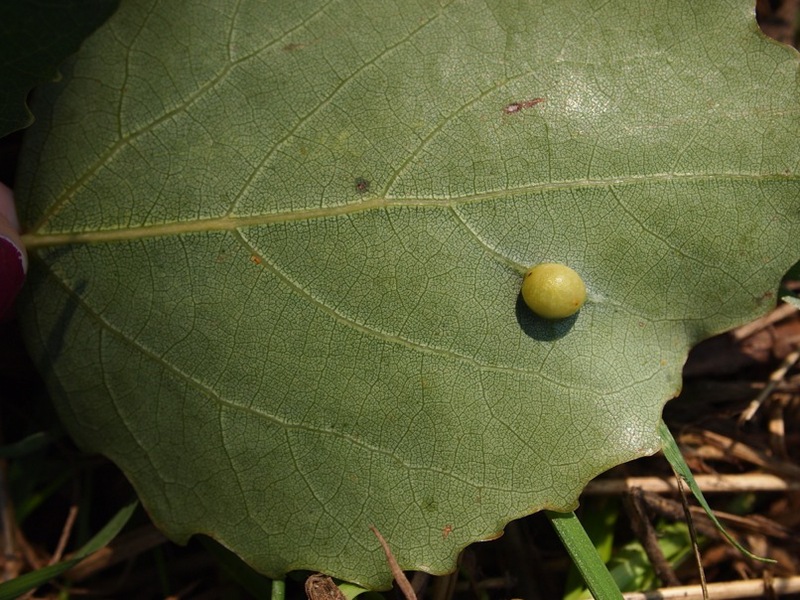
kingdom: Animalia
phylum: Arthropoda
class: Insecta
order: Diptera
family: Cecidomyiidae
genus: Harmandiola
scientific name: Harmandiola cavernosa
